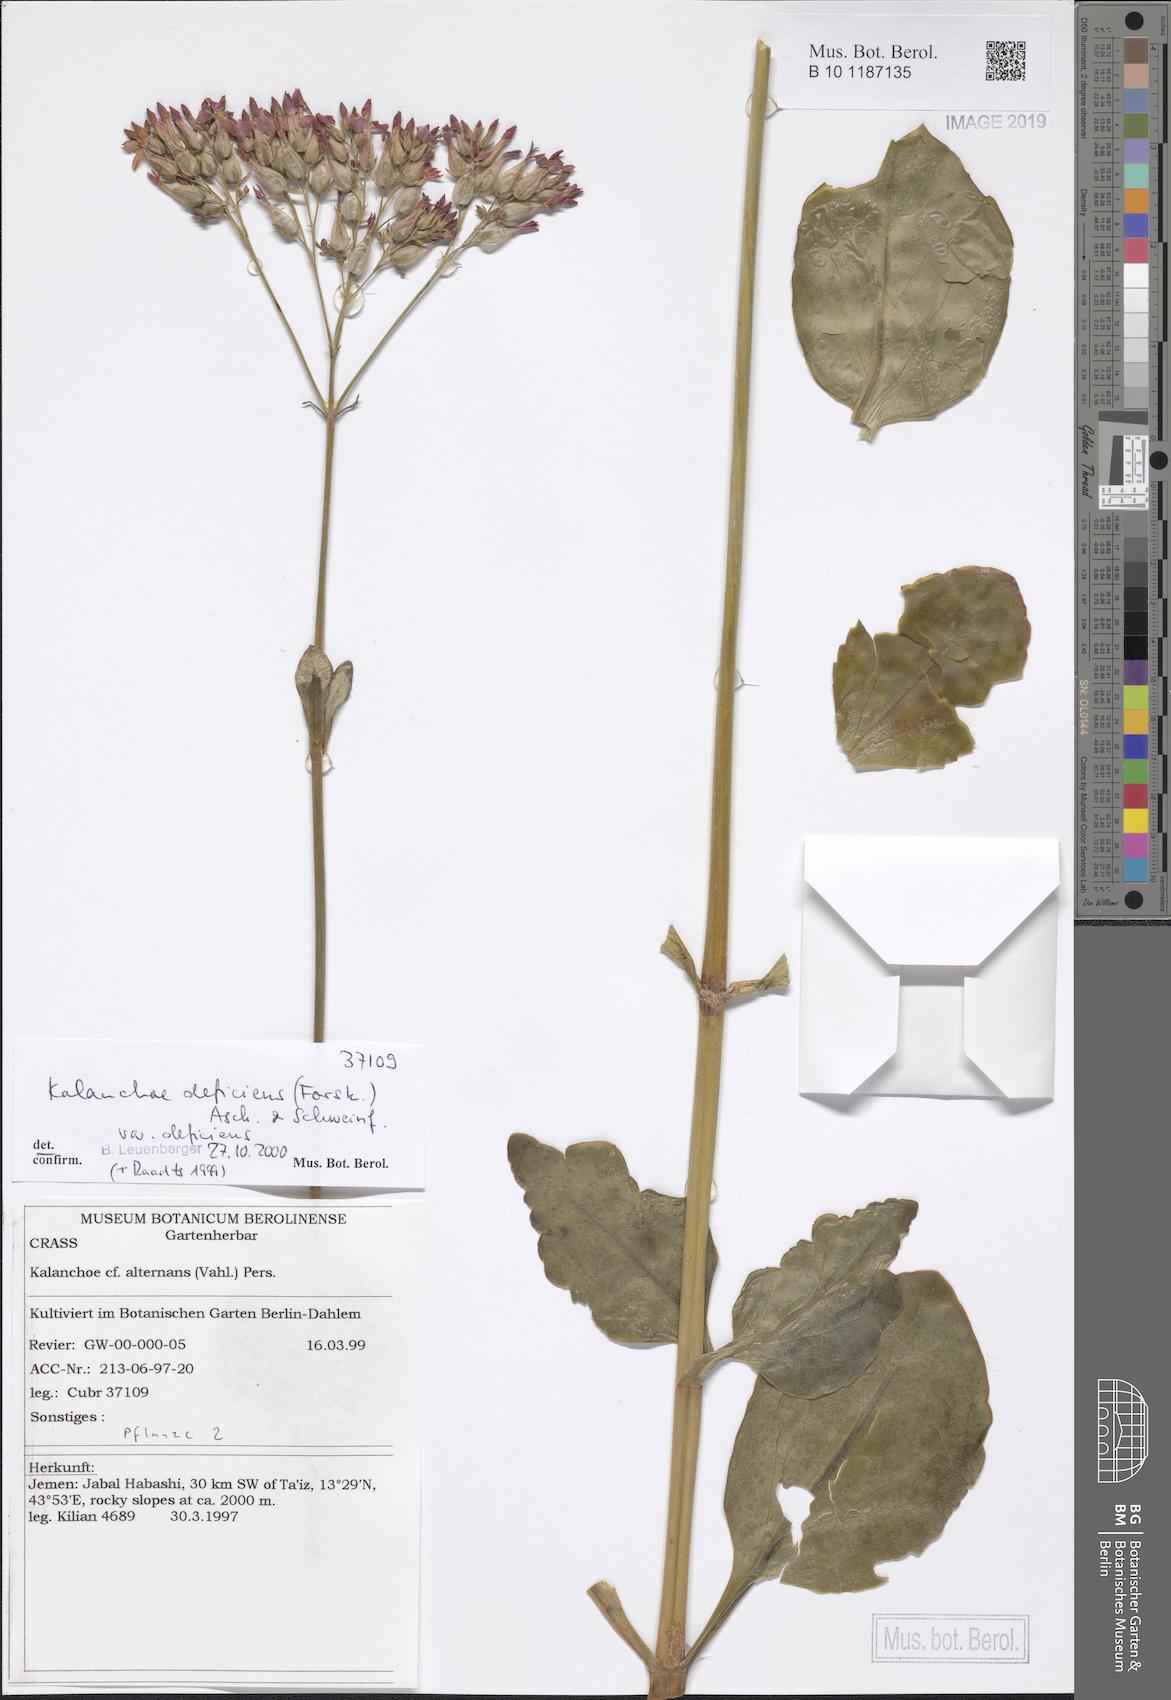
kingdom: Plantae
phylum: Tracheophyta
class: Magnoliopsida
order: Saxifragales
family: Crassulaceae
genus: Kalanchoe
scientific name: Kalanchoe deficiens
